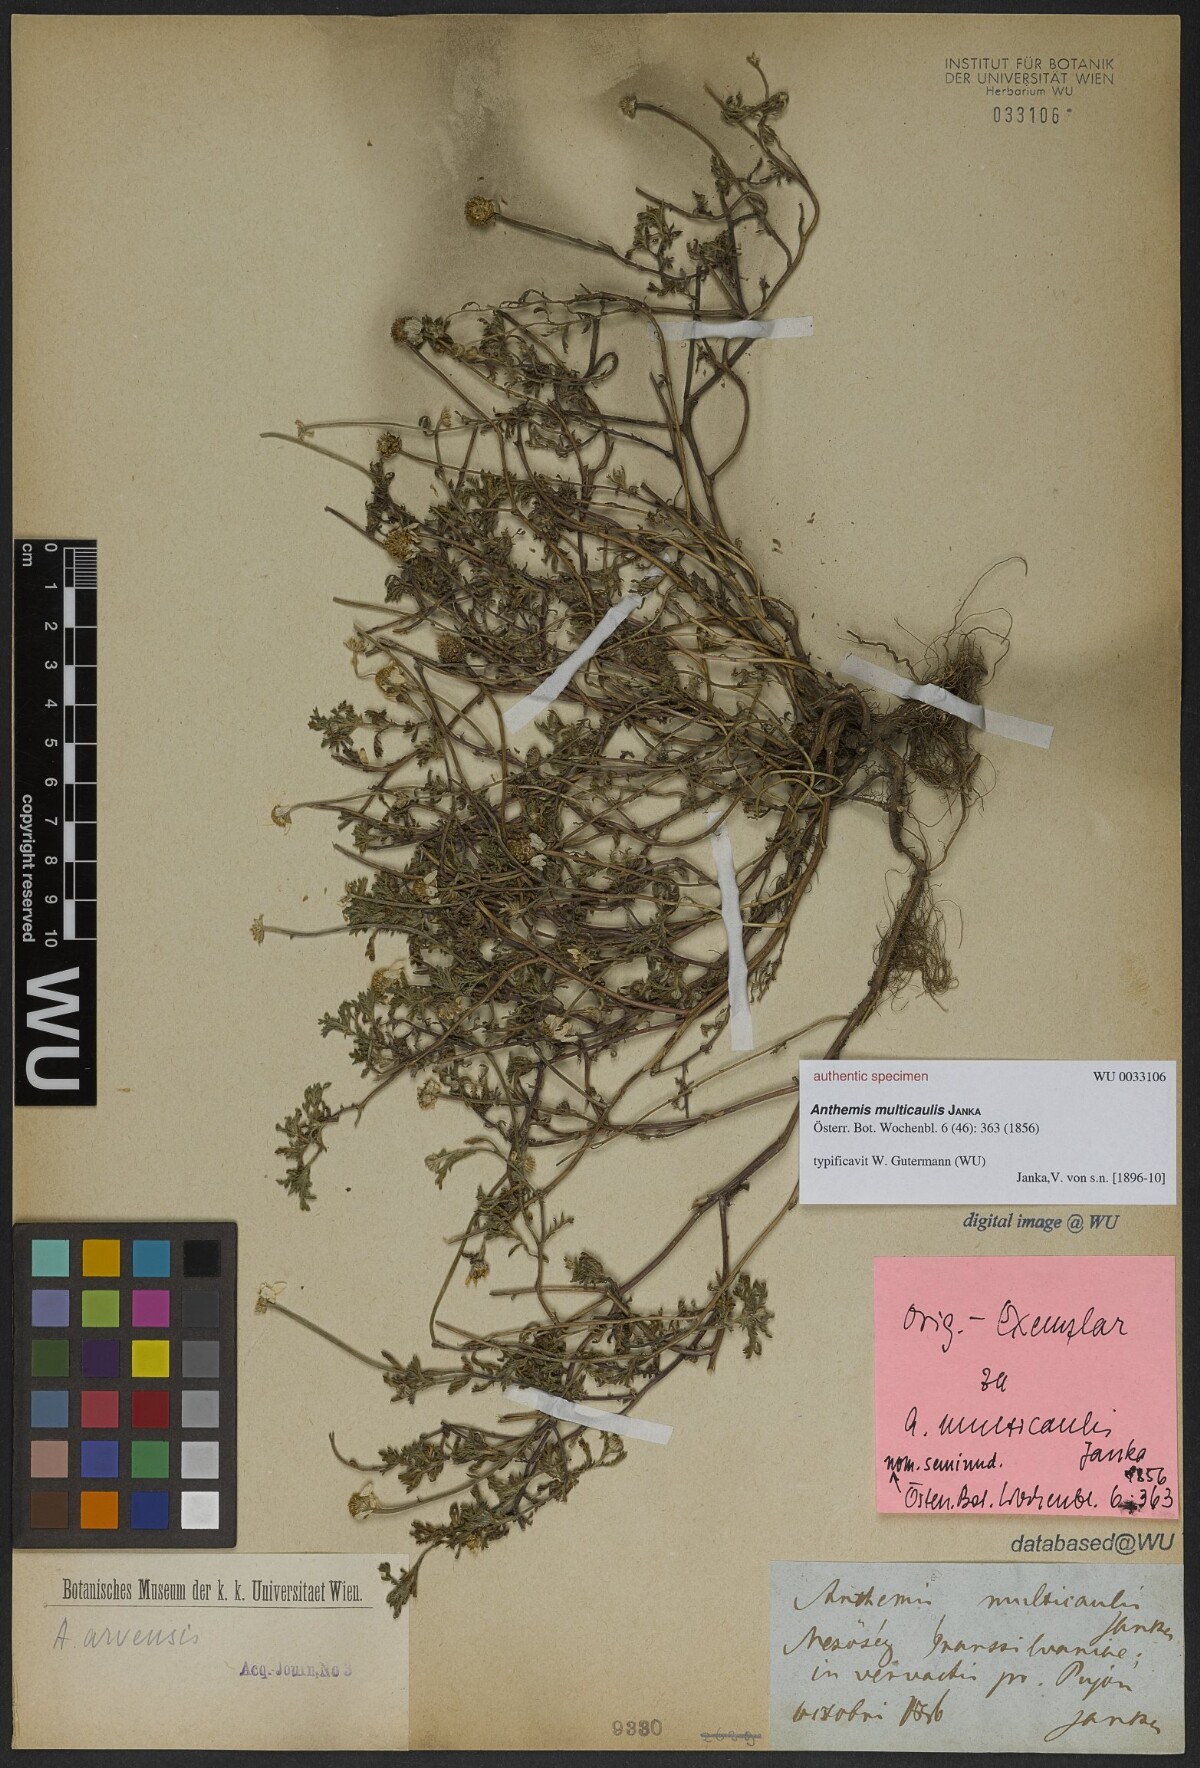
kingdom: Plantae
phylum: Tracheophyta
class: Magnoliopsida
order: Asterales
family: Asteraceae
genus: Anthemis
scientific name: Anthemis multicaulis
